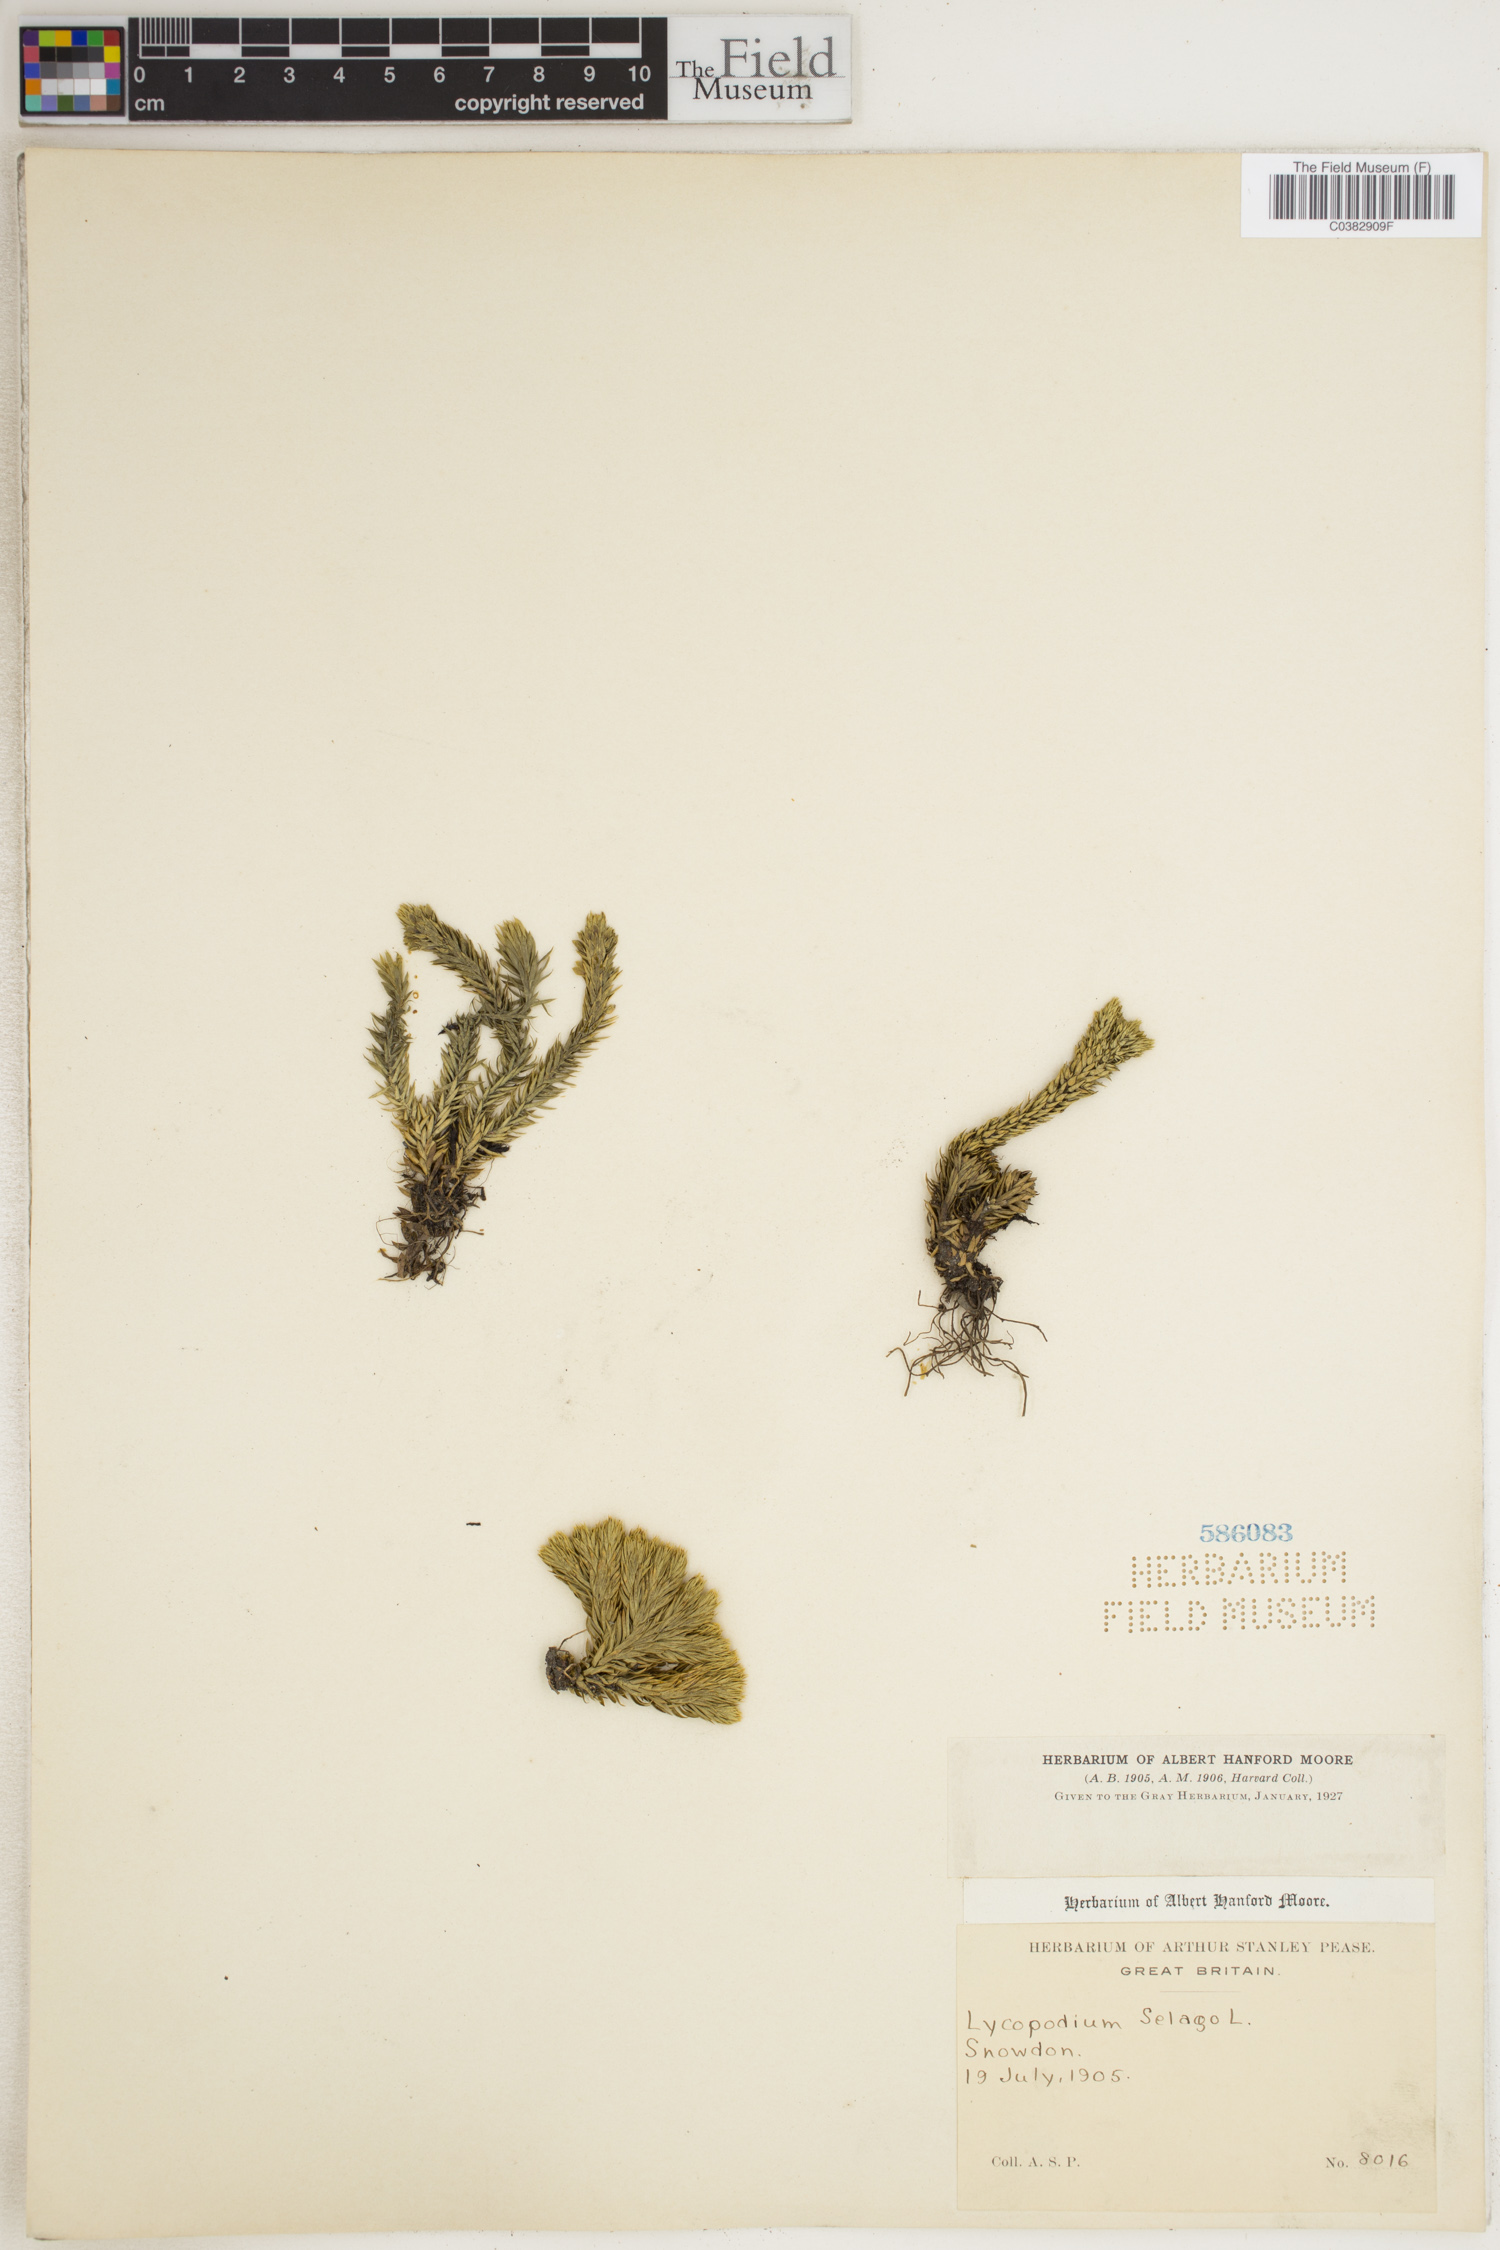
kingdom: Plantae
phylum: Tracheophyta
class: Lycopodiopsida
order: Lycopodiales
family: Lycopodiaceae
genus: Huperzia
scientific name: Huperzia selago
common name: Northern firmoss
